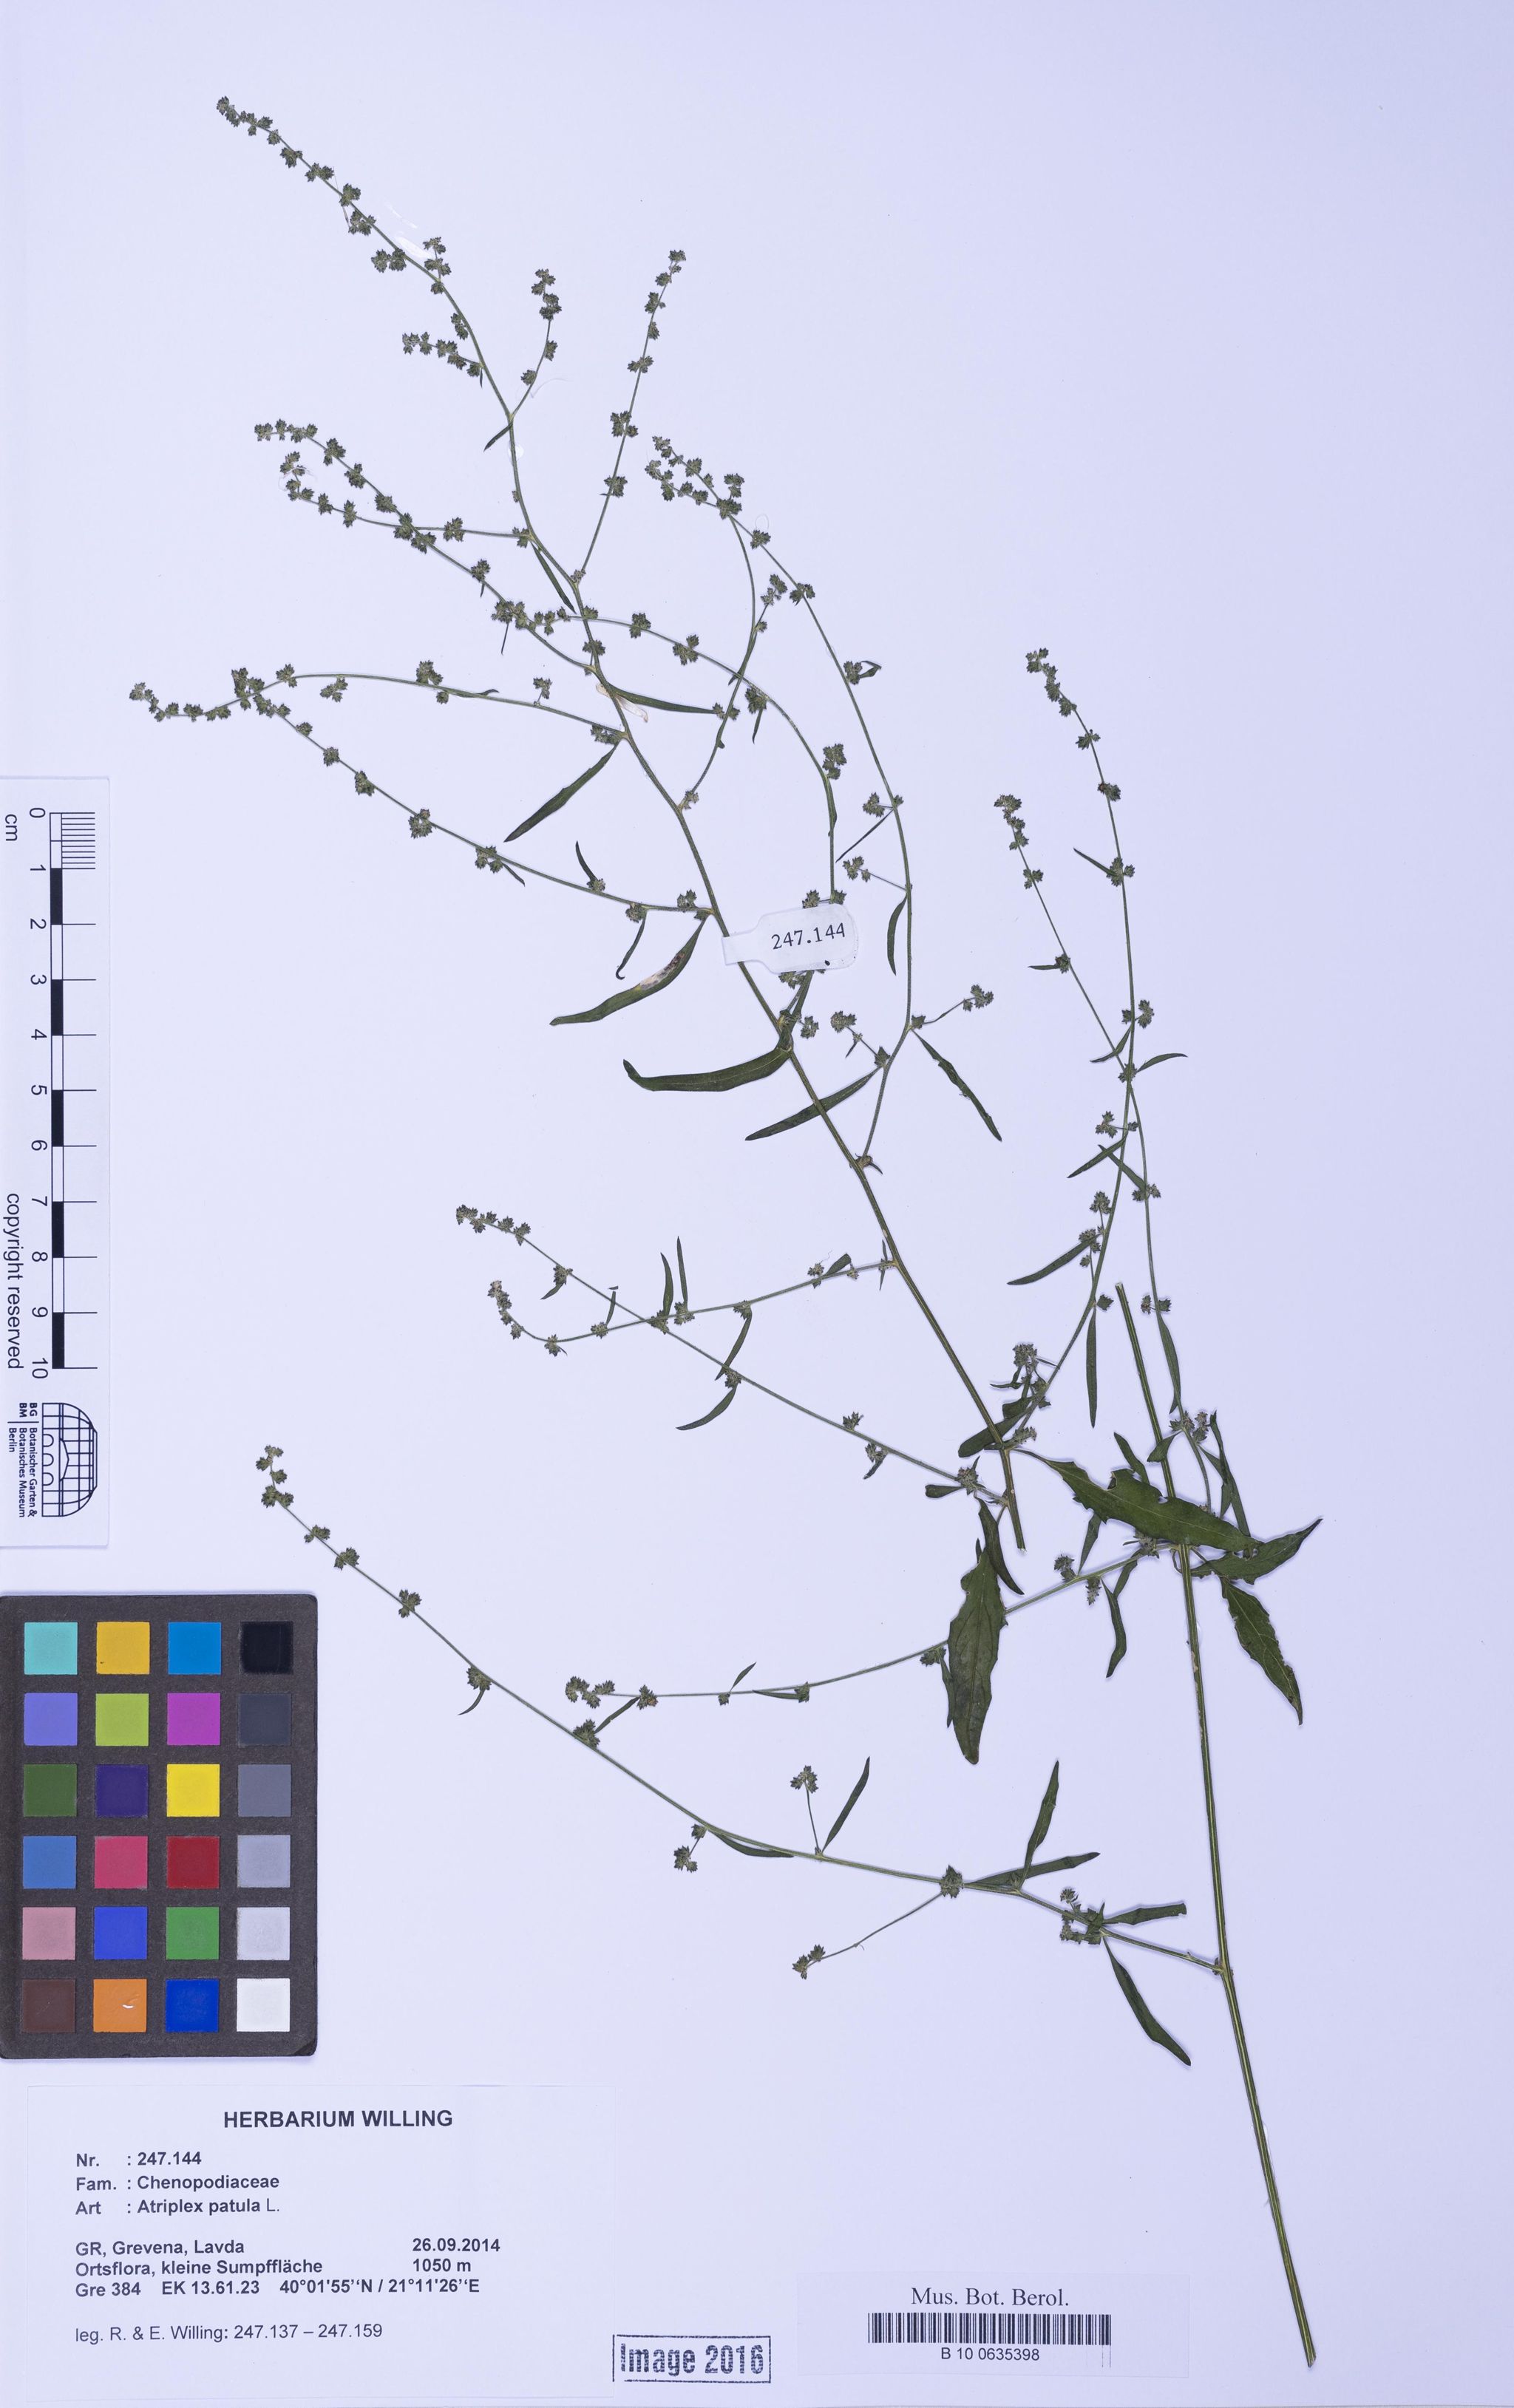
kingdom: Plantae
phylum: Tracheophyta
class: Magnoliopsida
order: Caryophyllales
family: Amaranthaceae
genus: Atriplex
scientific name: Atriplex patula
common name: Common orache
